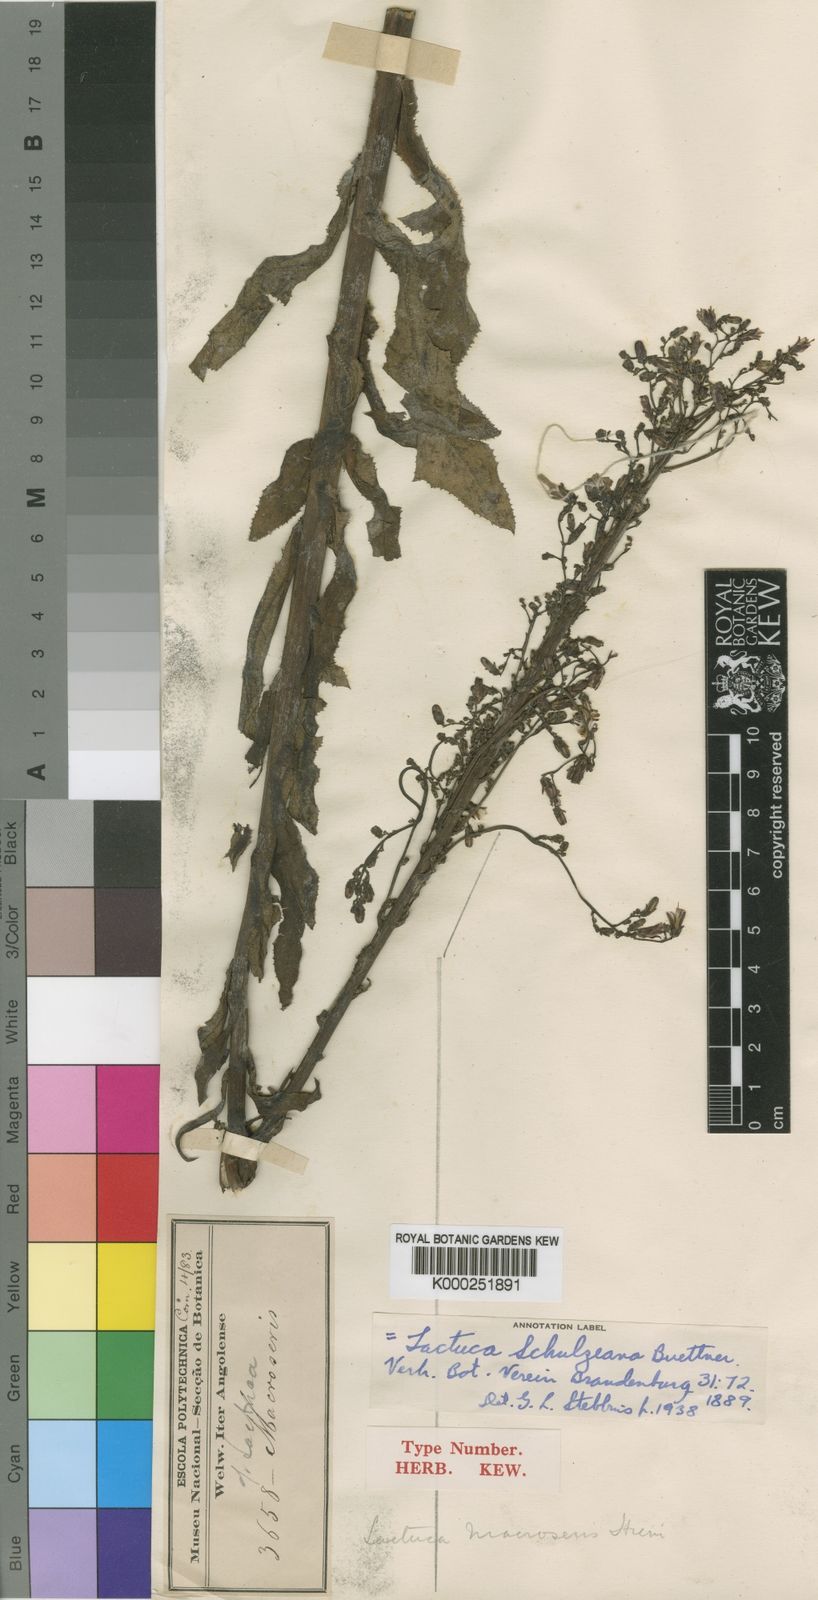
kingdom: Plantae
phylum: Tracheophyta
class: Magnoliopsida
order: Asterales
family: Asteraceae
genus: Lactuca
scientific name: Lactuca
